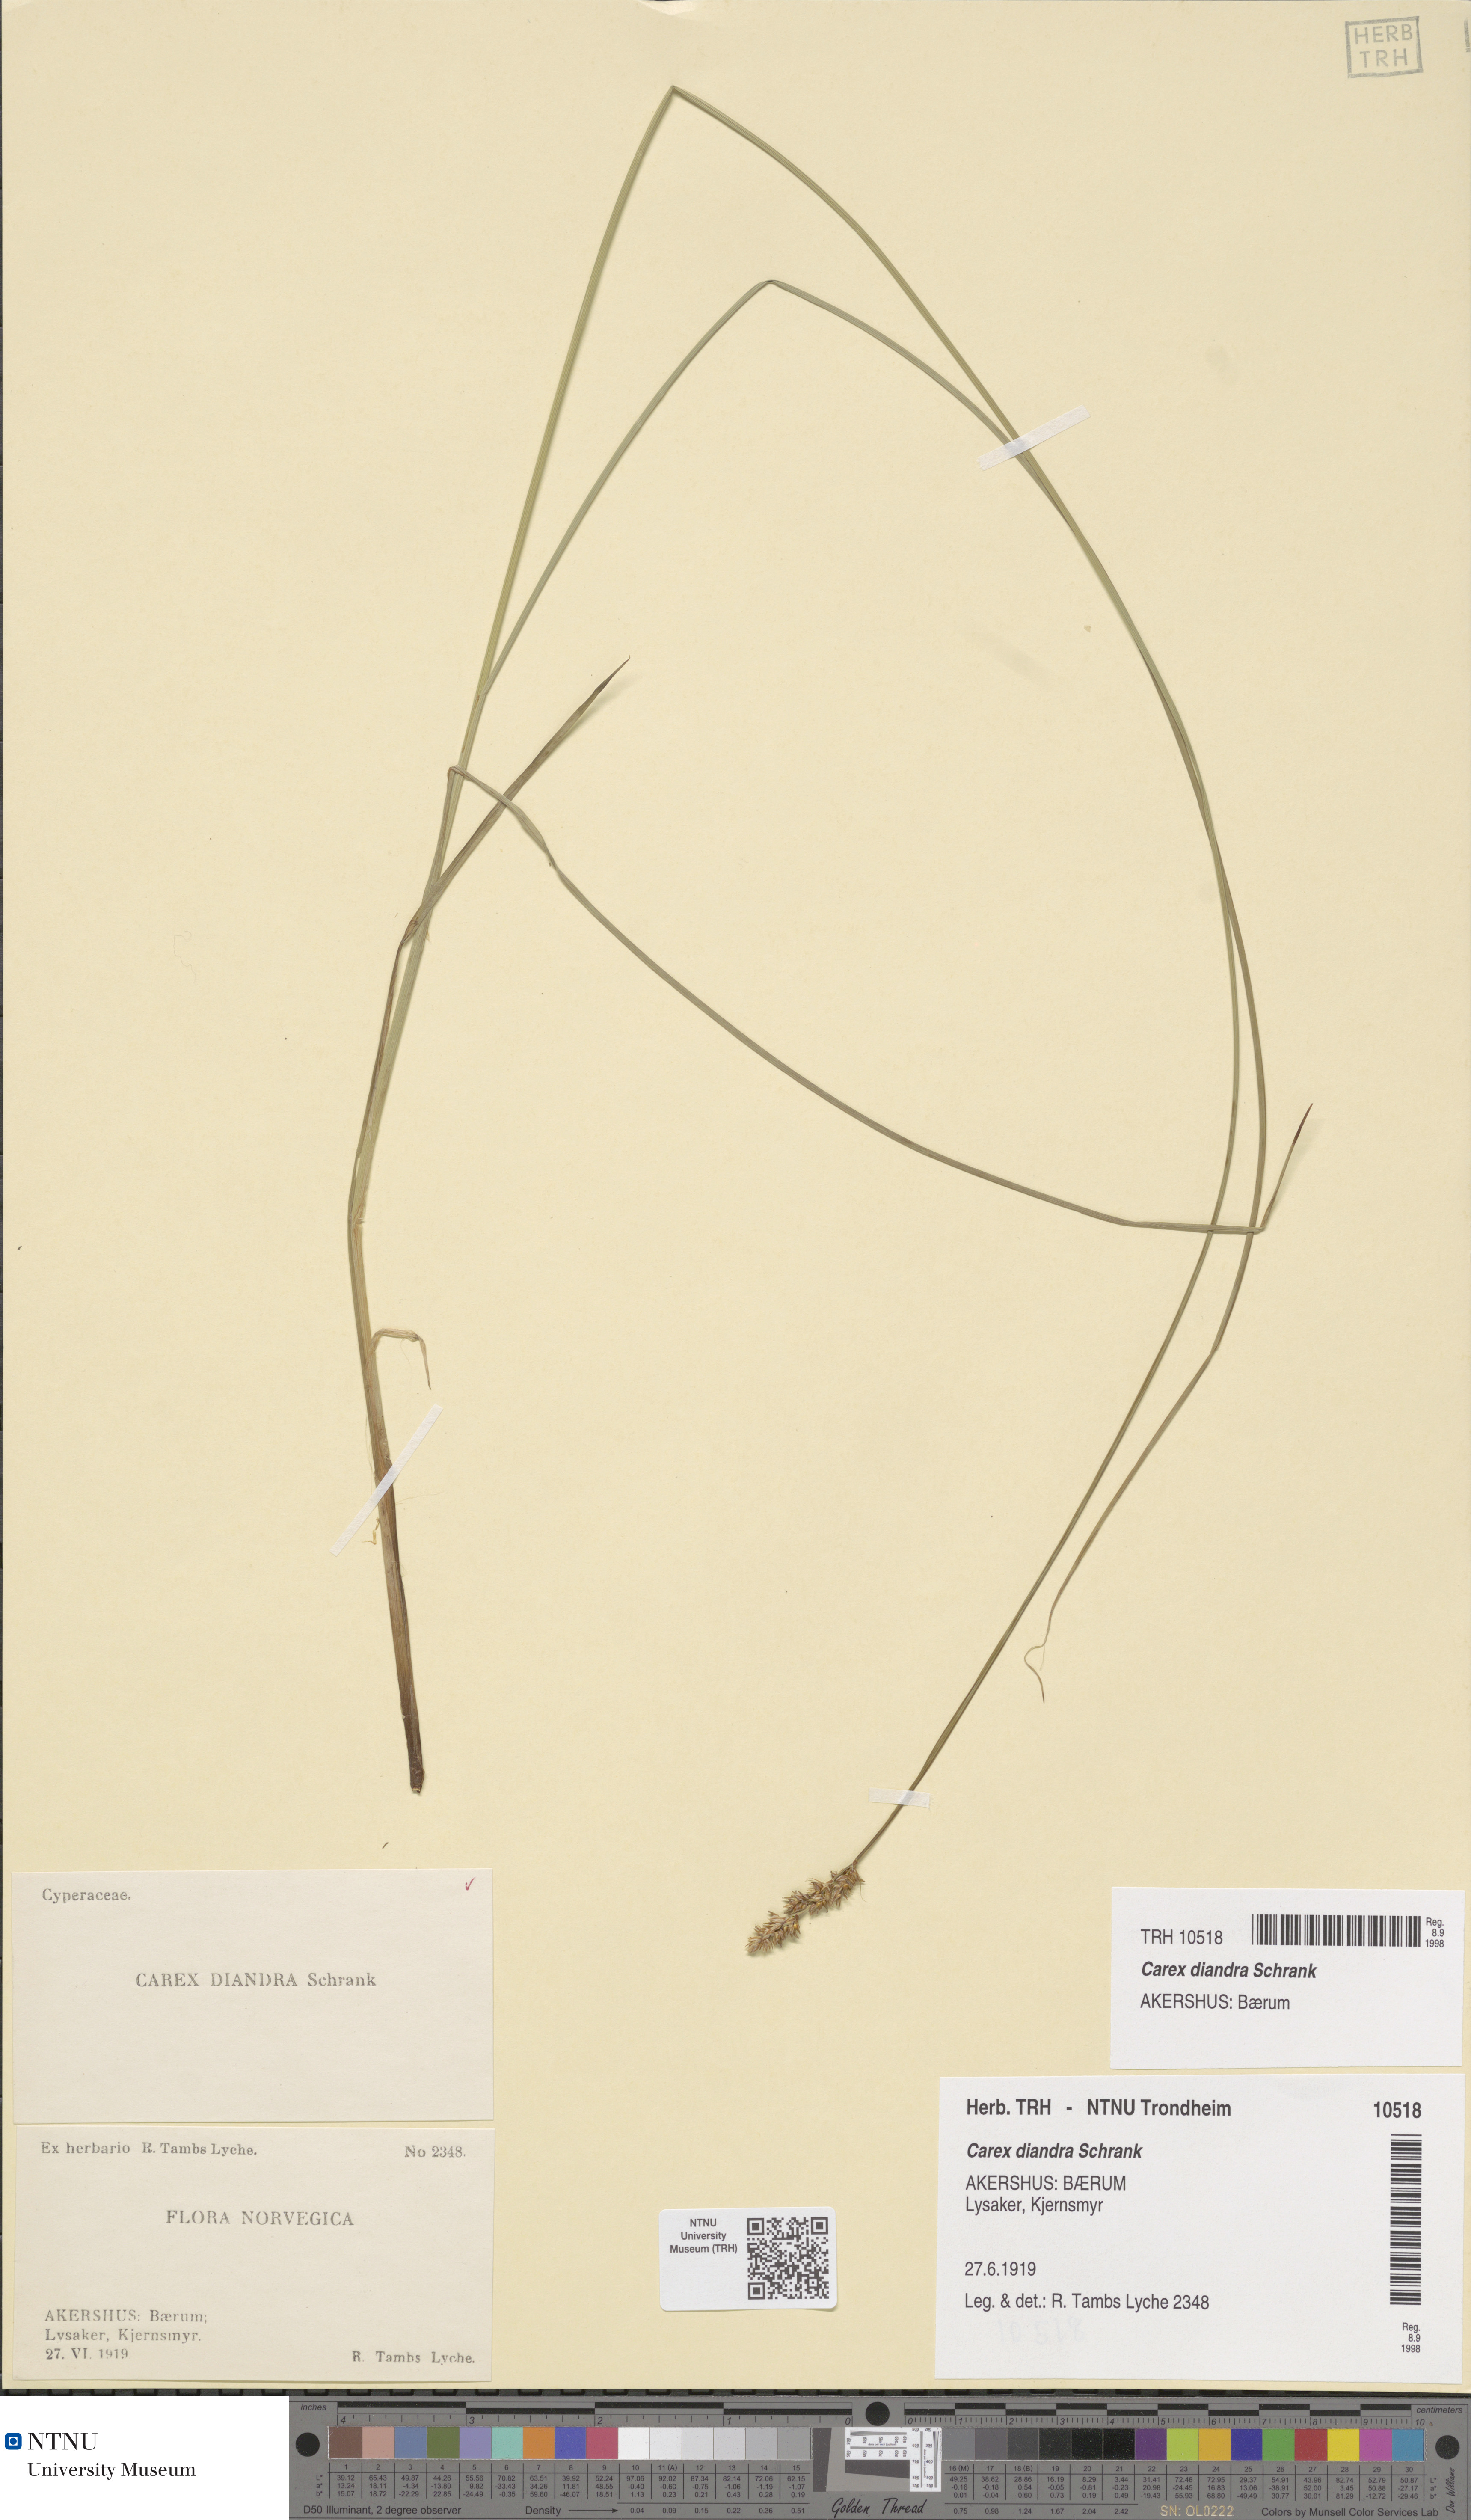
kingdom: Plantae
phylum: Tracheophyta
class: Liliopsida
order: Poales
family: Cyperaceae
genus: Carex
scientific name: Carex diandra
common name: Lesser tussock-sedge
